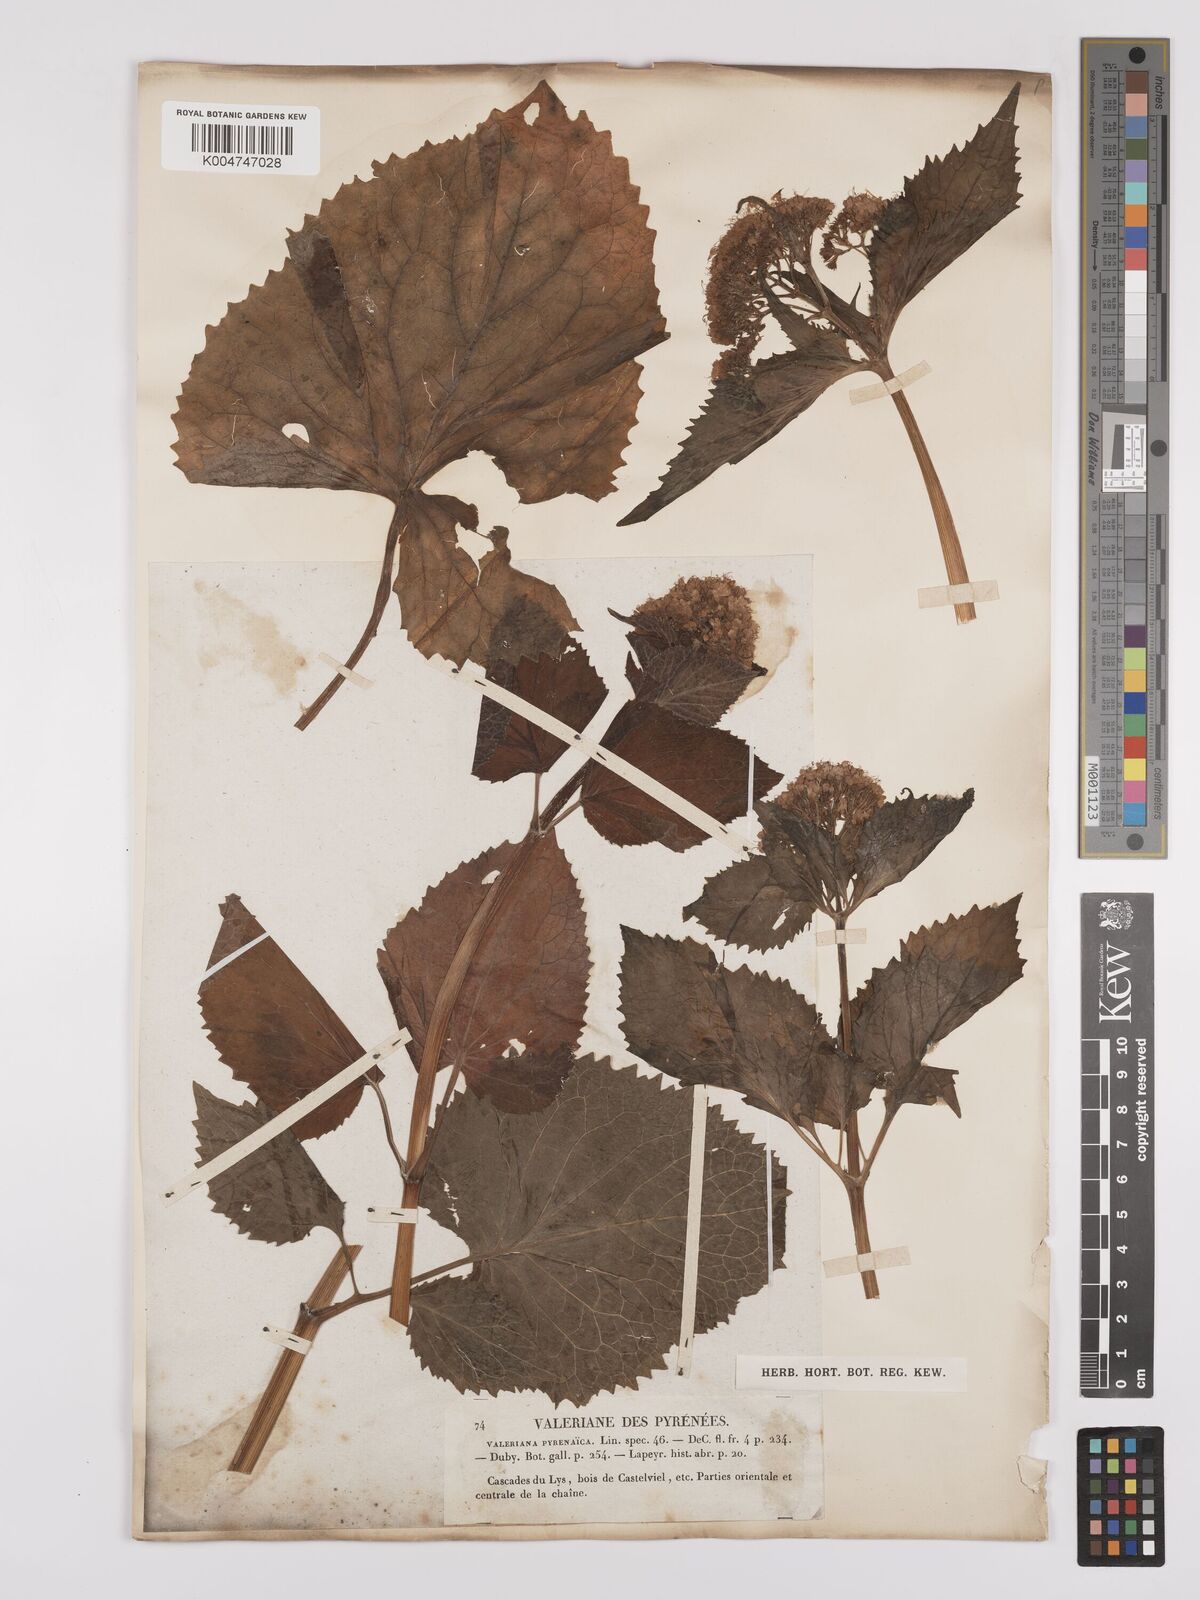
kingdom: Plantae
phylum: Tracheophyta
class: Magnoliopsida
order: Dipsacales
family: Caprifoliaceae
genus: Valeriana
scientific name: Valeriana pyrenaica
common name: Pyrenean valerian
